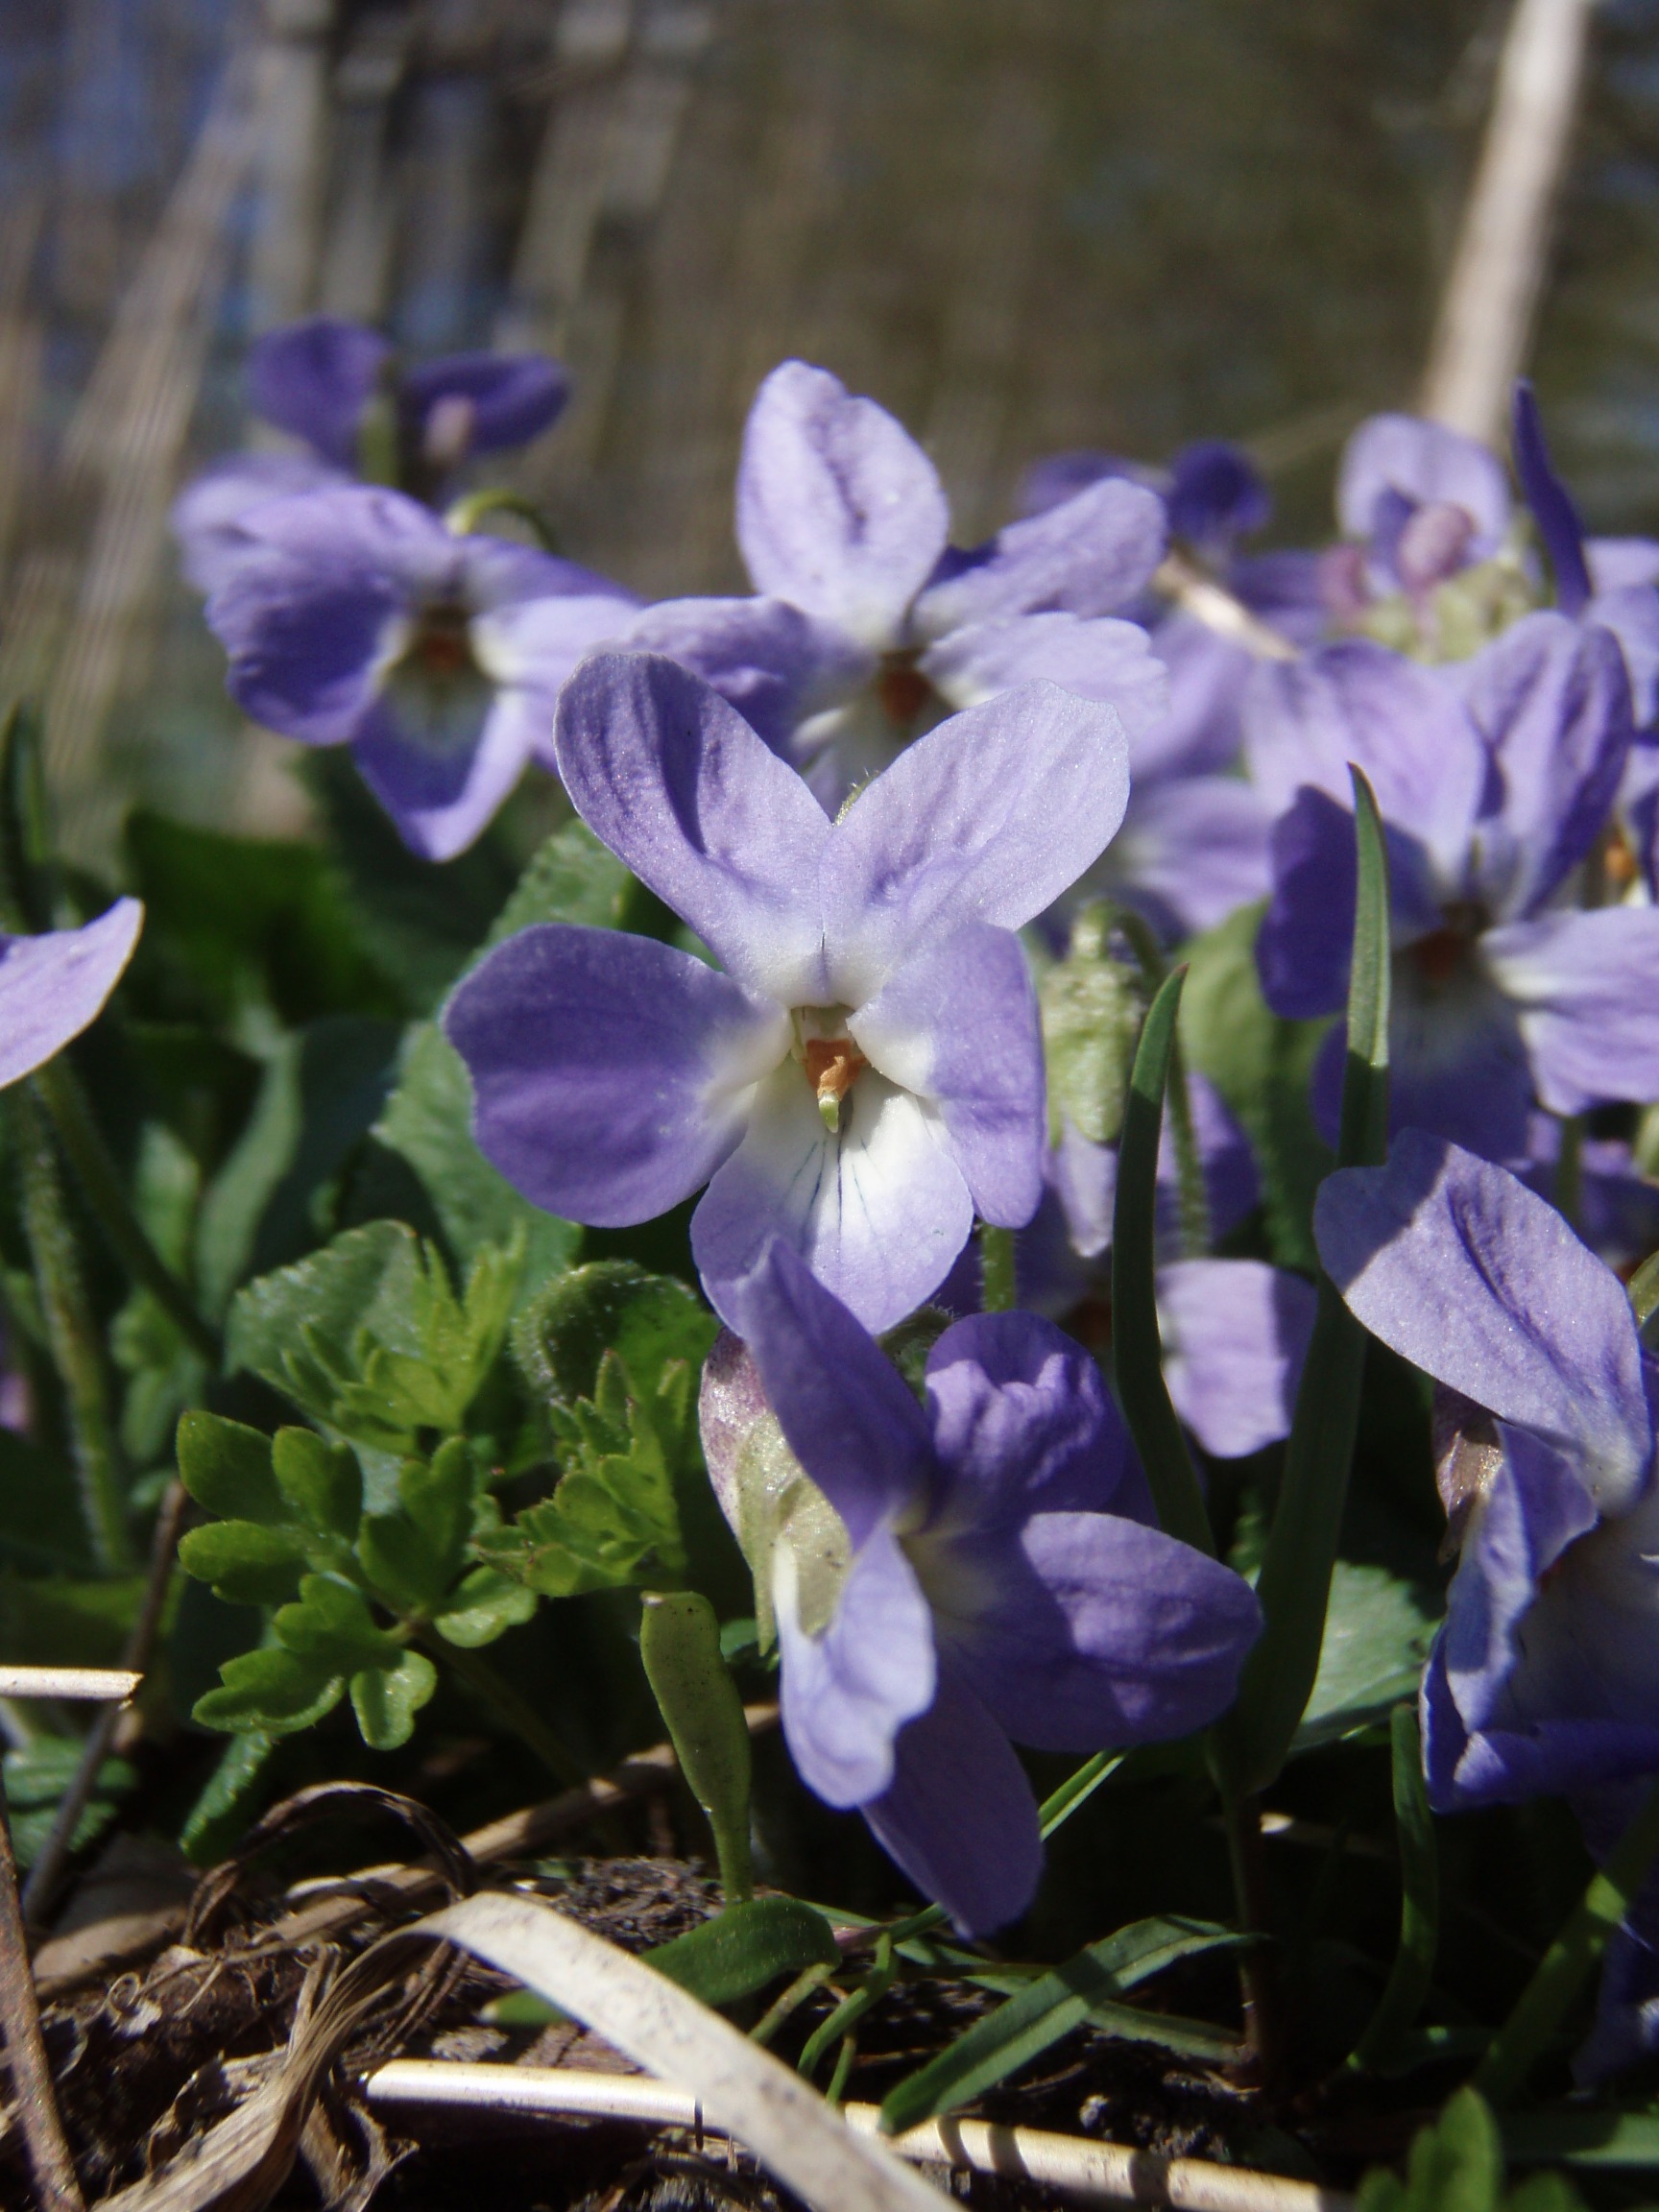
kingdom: Plantae
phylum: Tracheophyta
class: Magnoliopsida
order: Malpighiales
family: Violaceae
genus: Viola
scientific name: Viola hirta
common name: Håret viol
